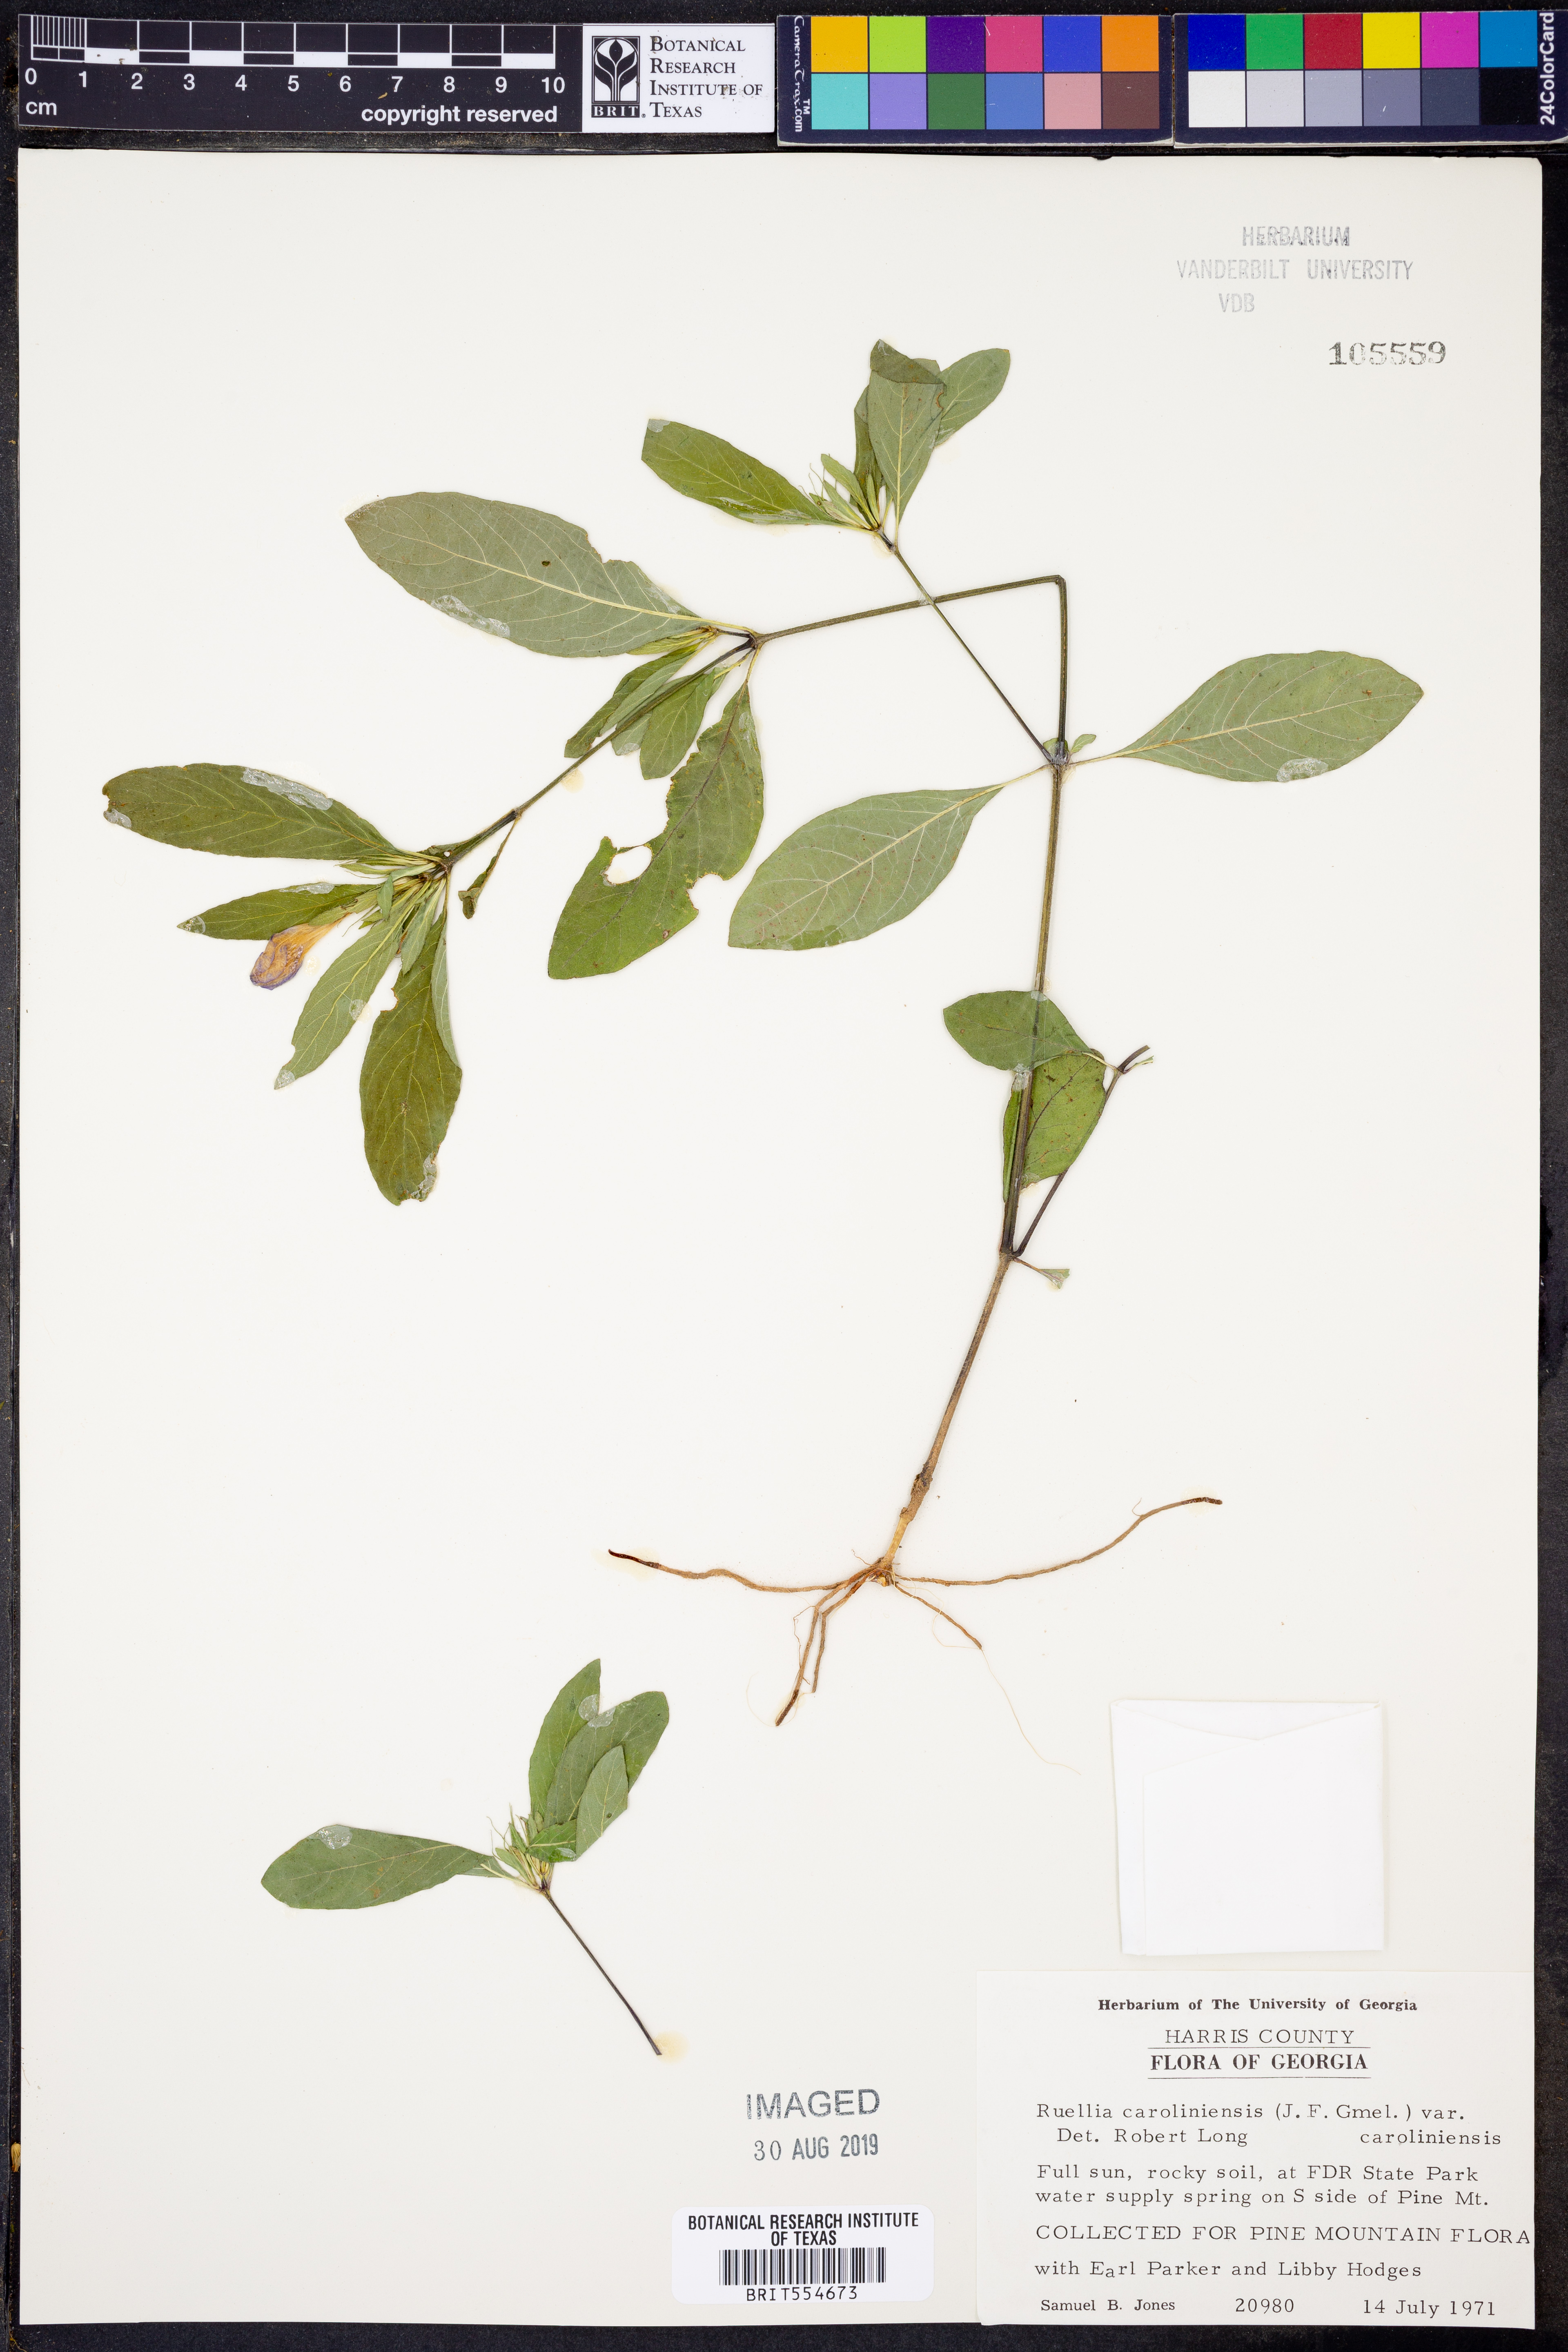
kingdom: Plantae
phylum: Tracheophyta
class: Magnoliopsida
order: Lamiales
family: Acanthaceae
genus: Ruellia
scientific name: Ruellia caroliniensis
